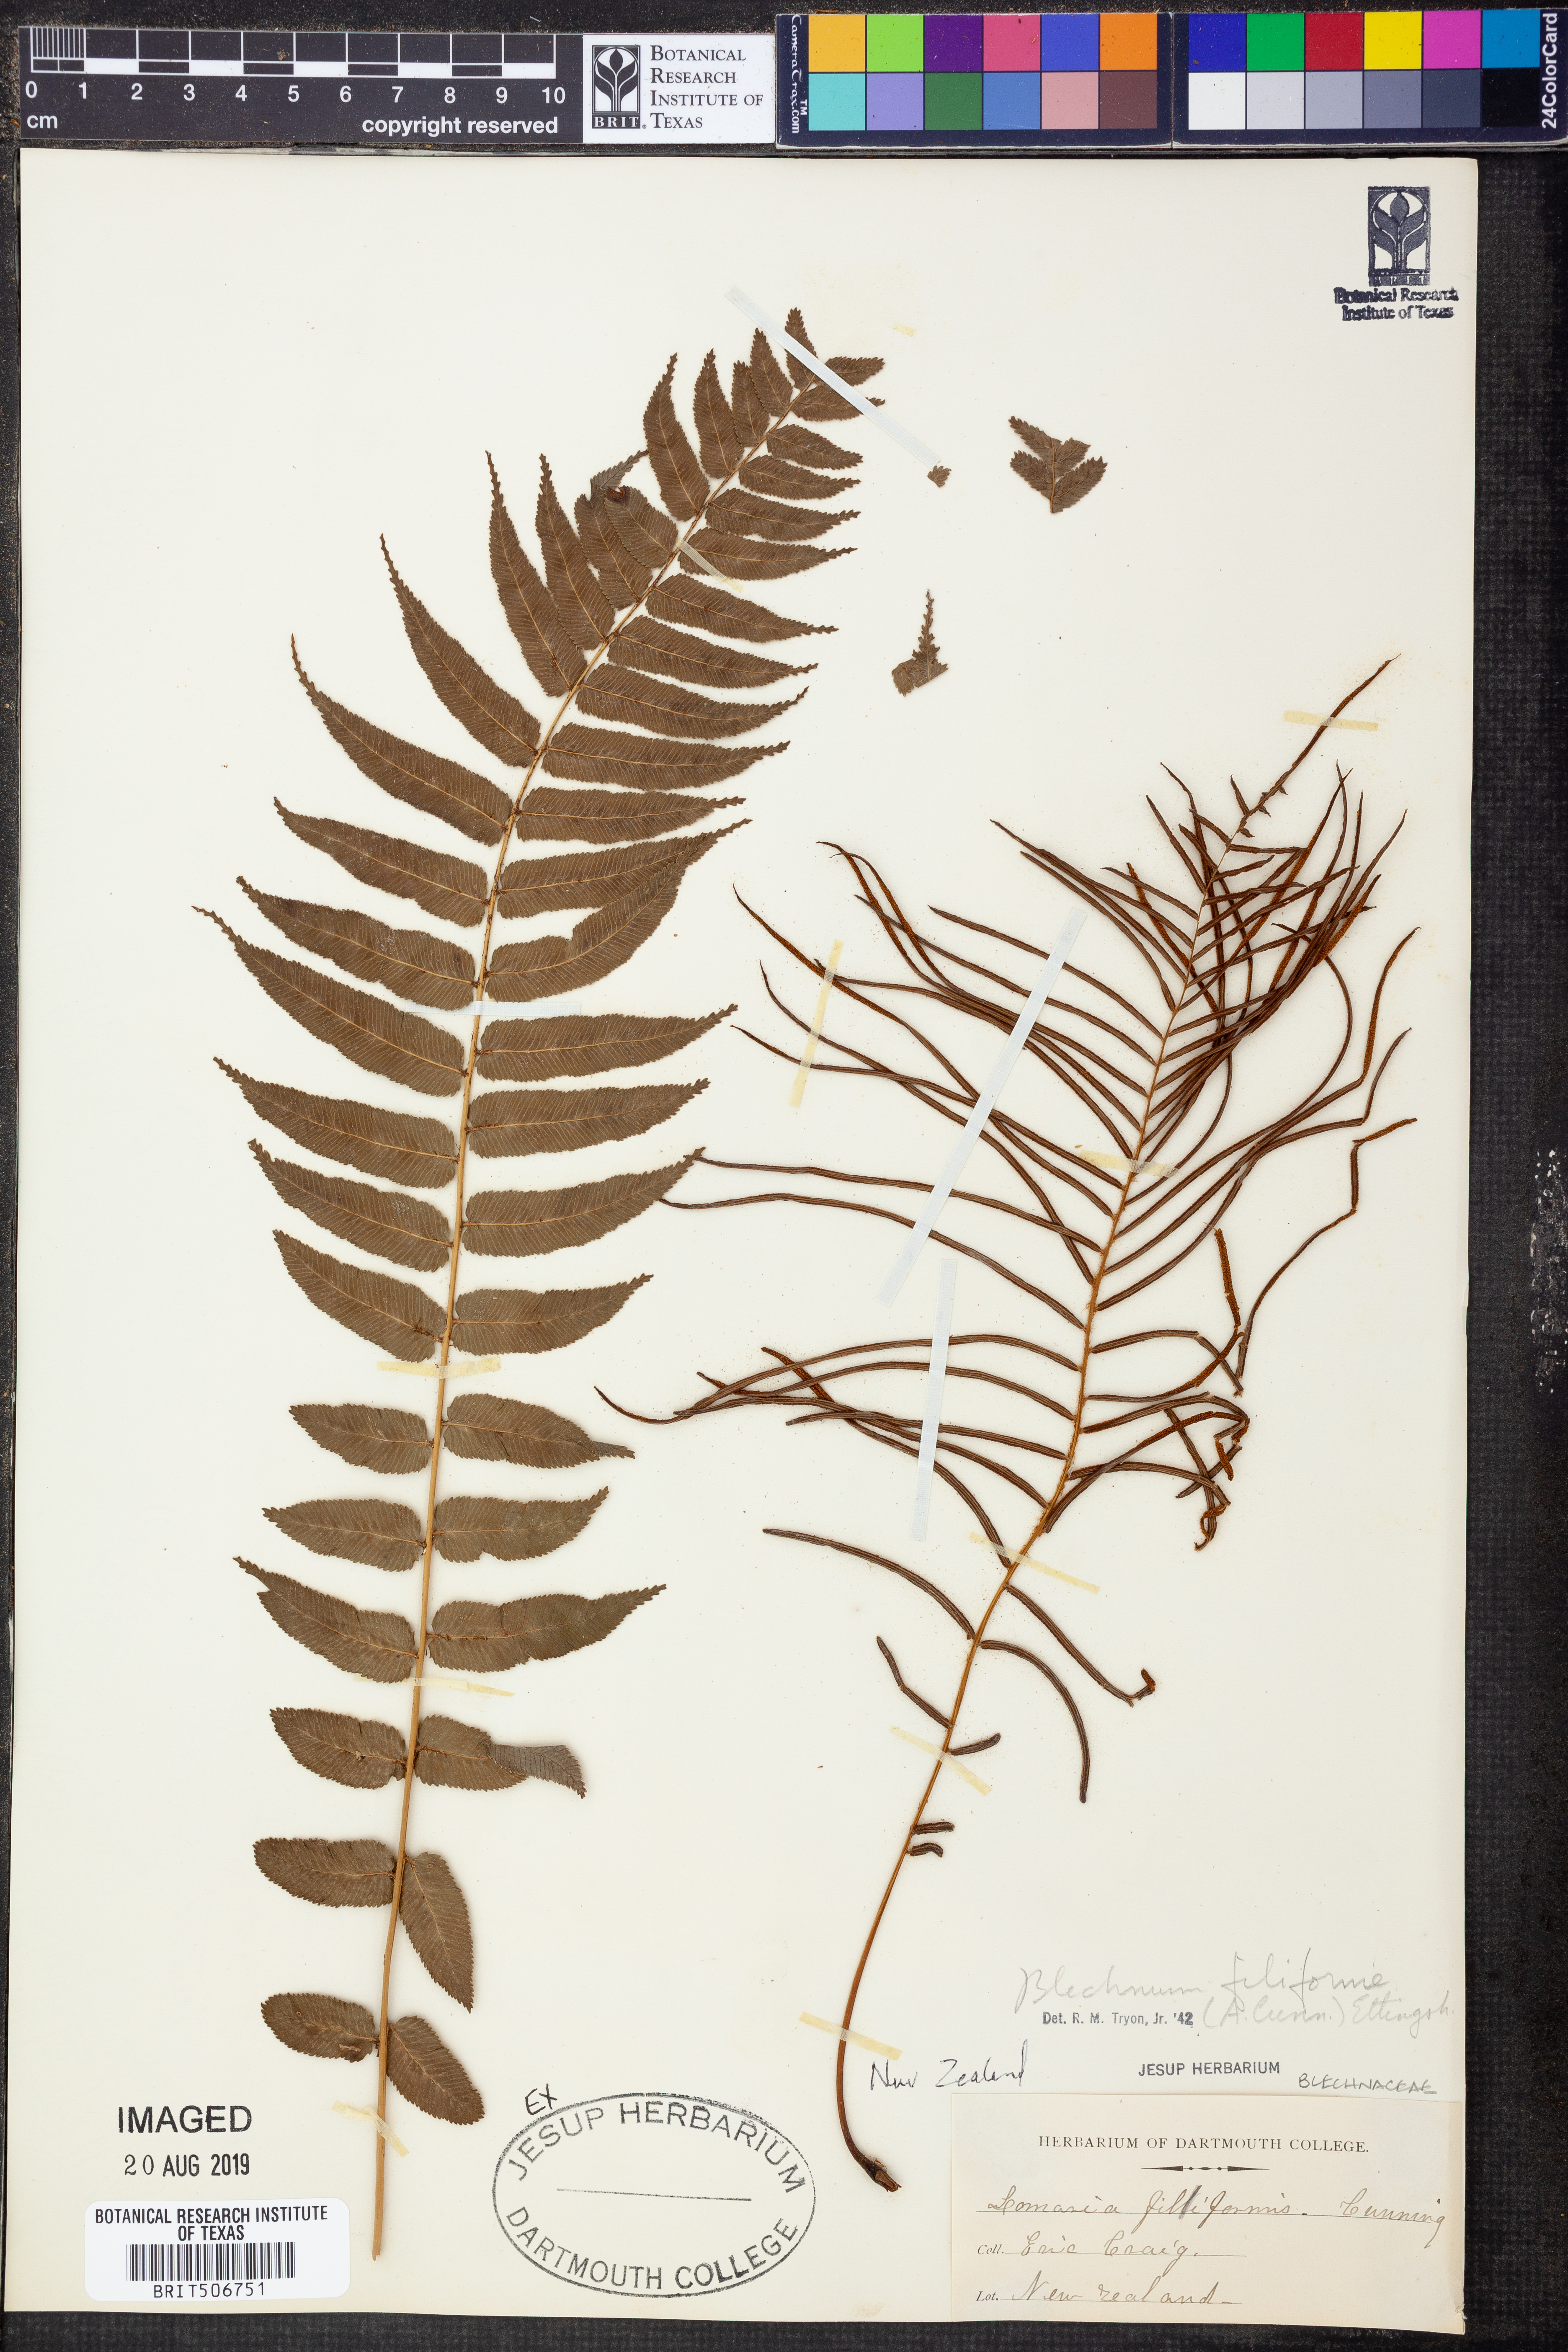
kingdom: Plantae
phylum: Tracheophyta
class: Polypodiopsida
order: Polypodiales
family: Blechnaceae
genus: Icarus
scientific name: Icarus filiformis
